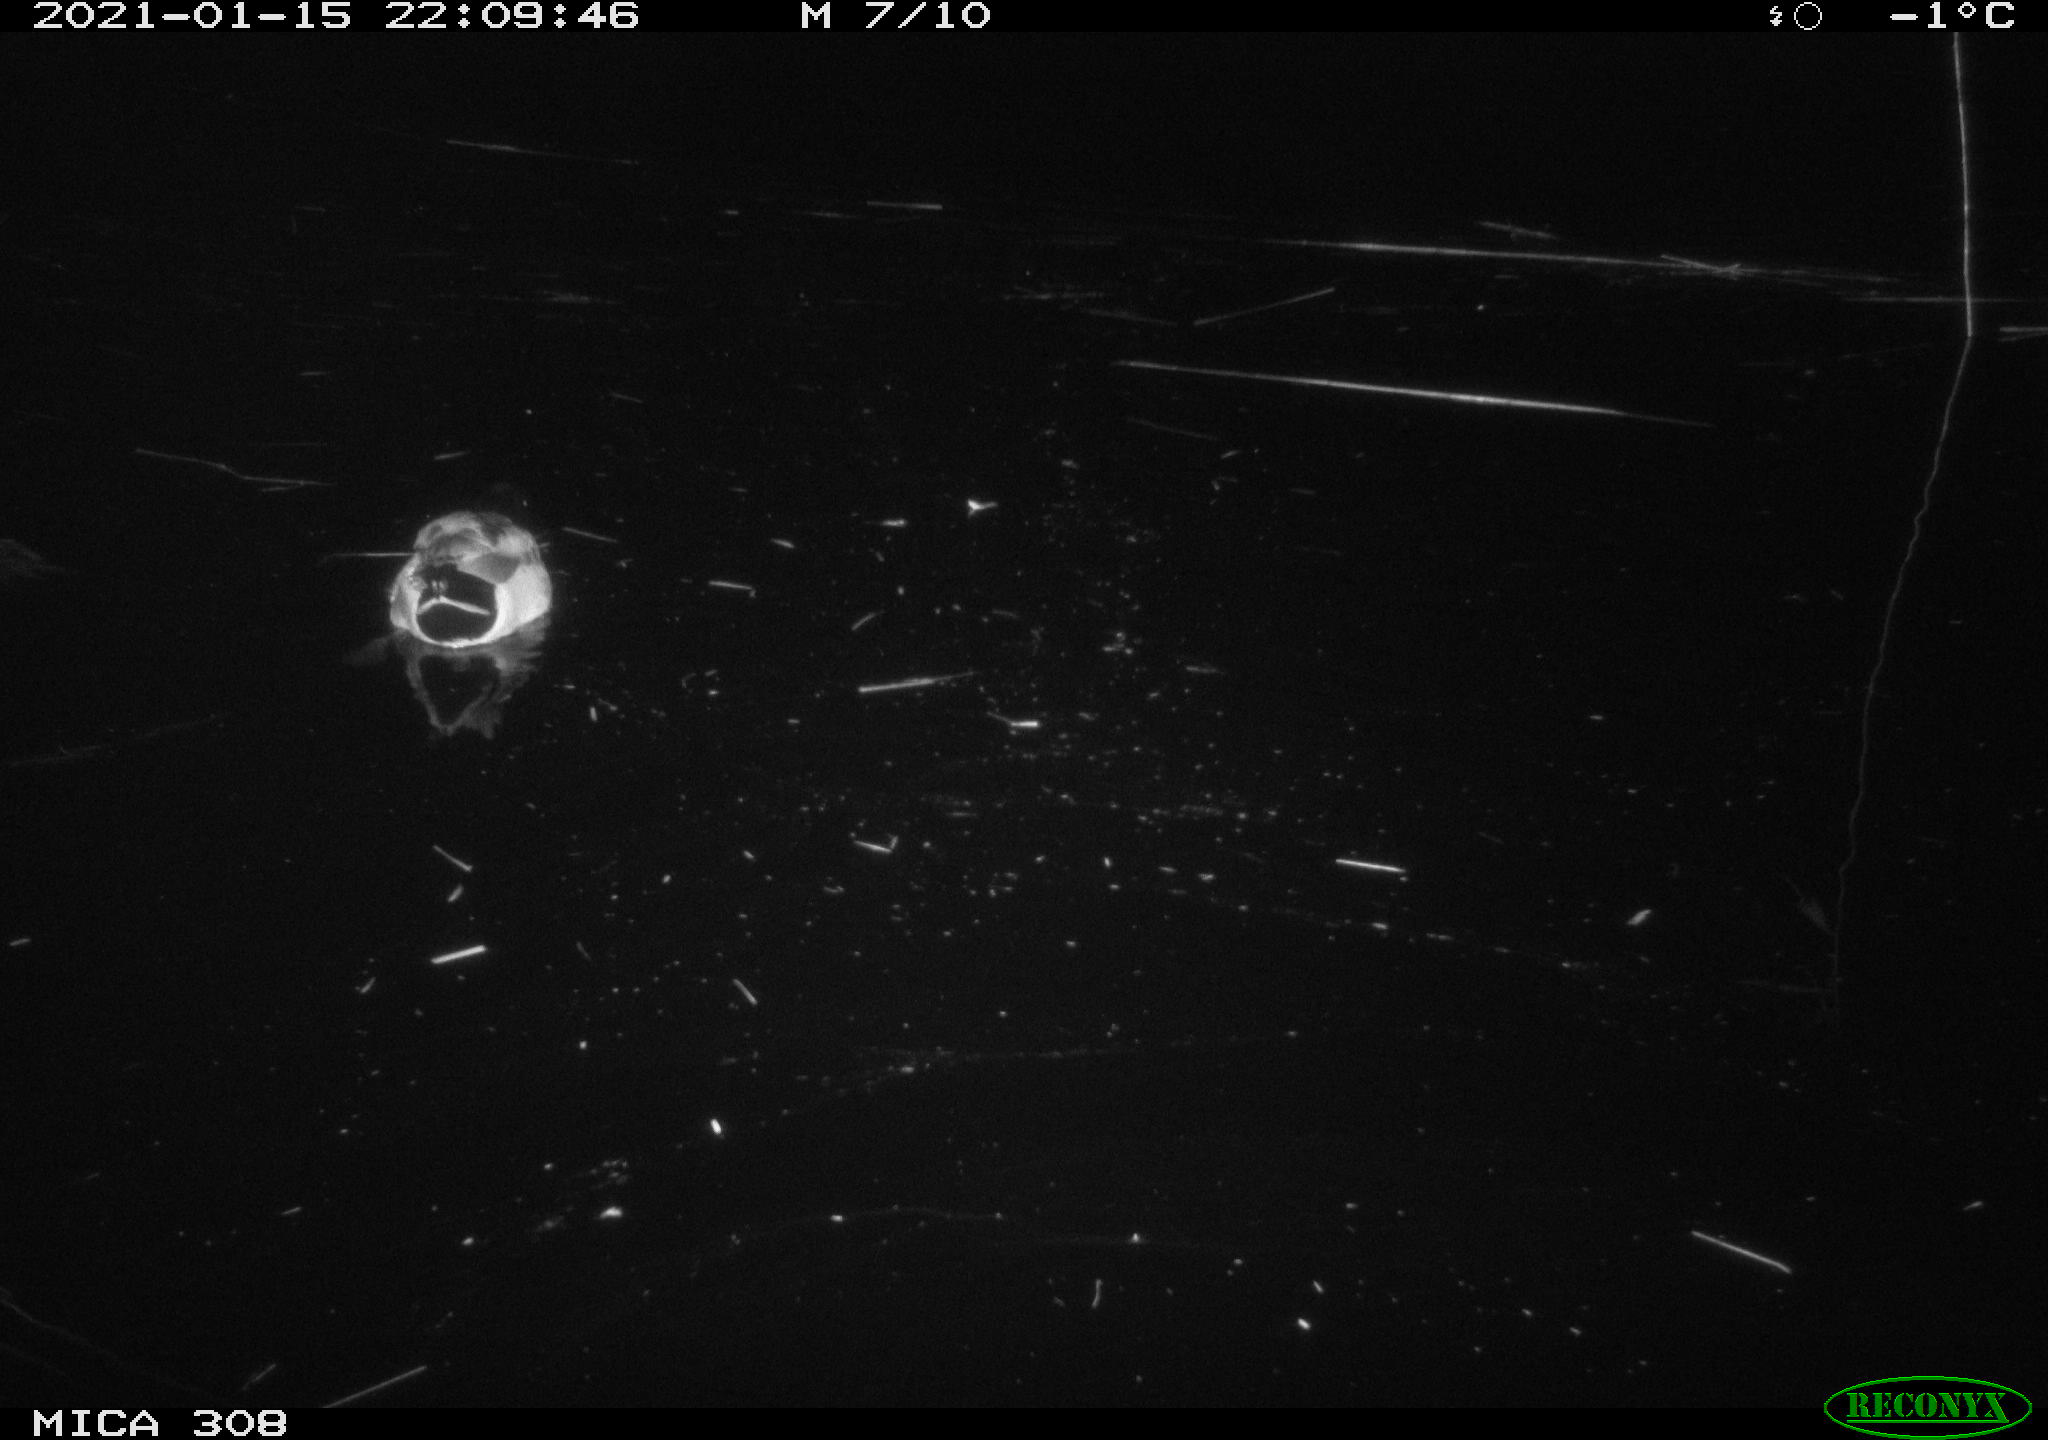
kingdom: Animalia
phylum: Chordata
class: Aves
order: Anseriformes
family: Anatidae
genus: Anas
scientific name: Anas platyrhynchos
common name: Mallard
